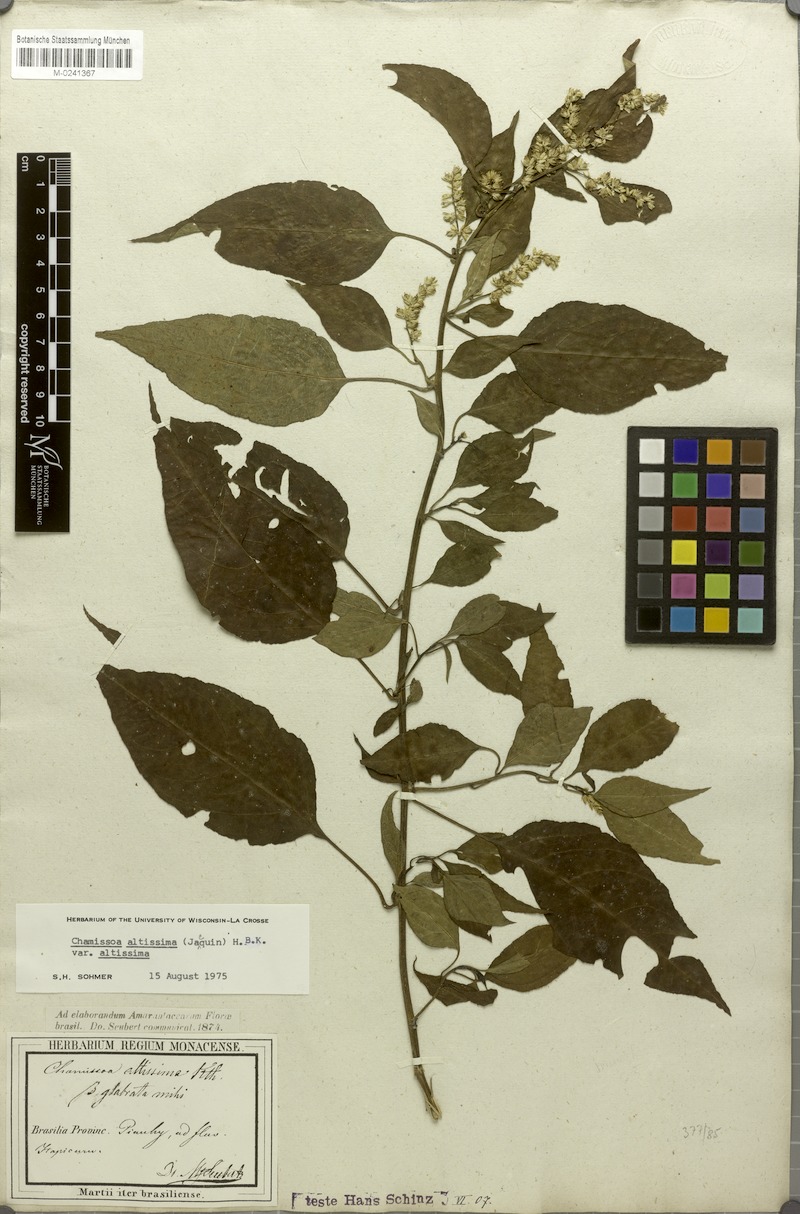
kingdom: Plantae
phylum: Tracheophyta
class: Magnoliopsida
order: Caryophyllales
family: Amaranthaceae
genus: Chamissoa
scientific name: Chamissoa altissima
